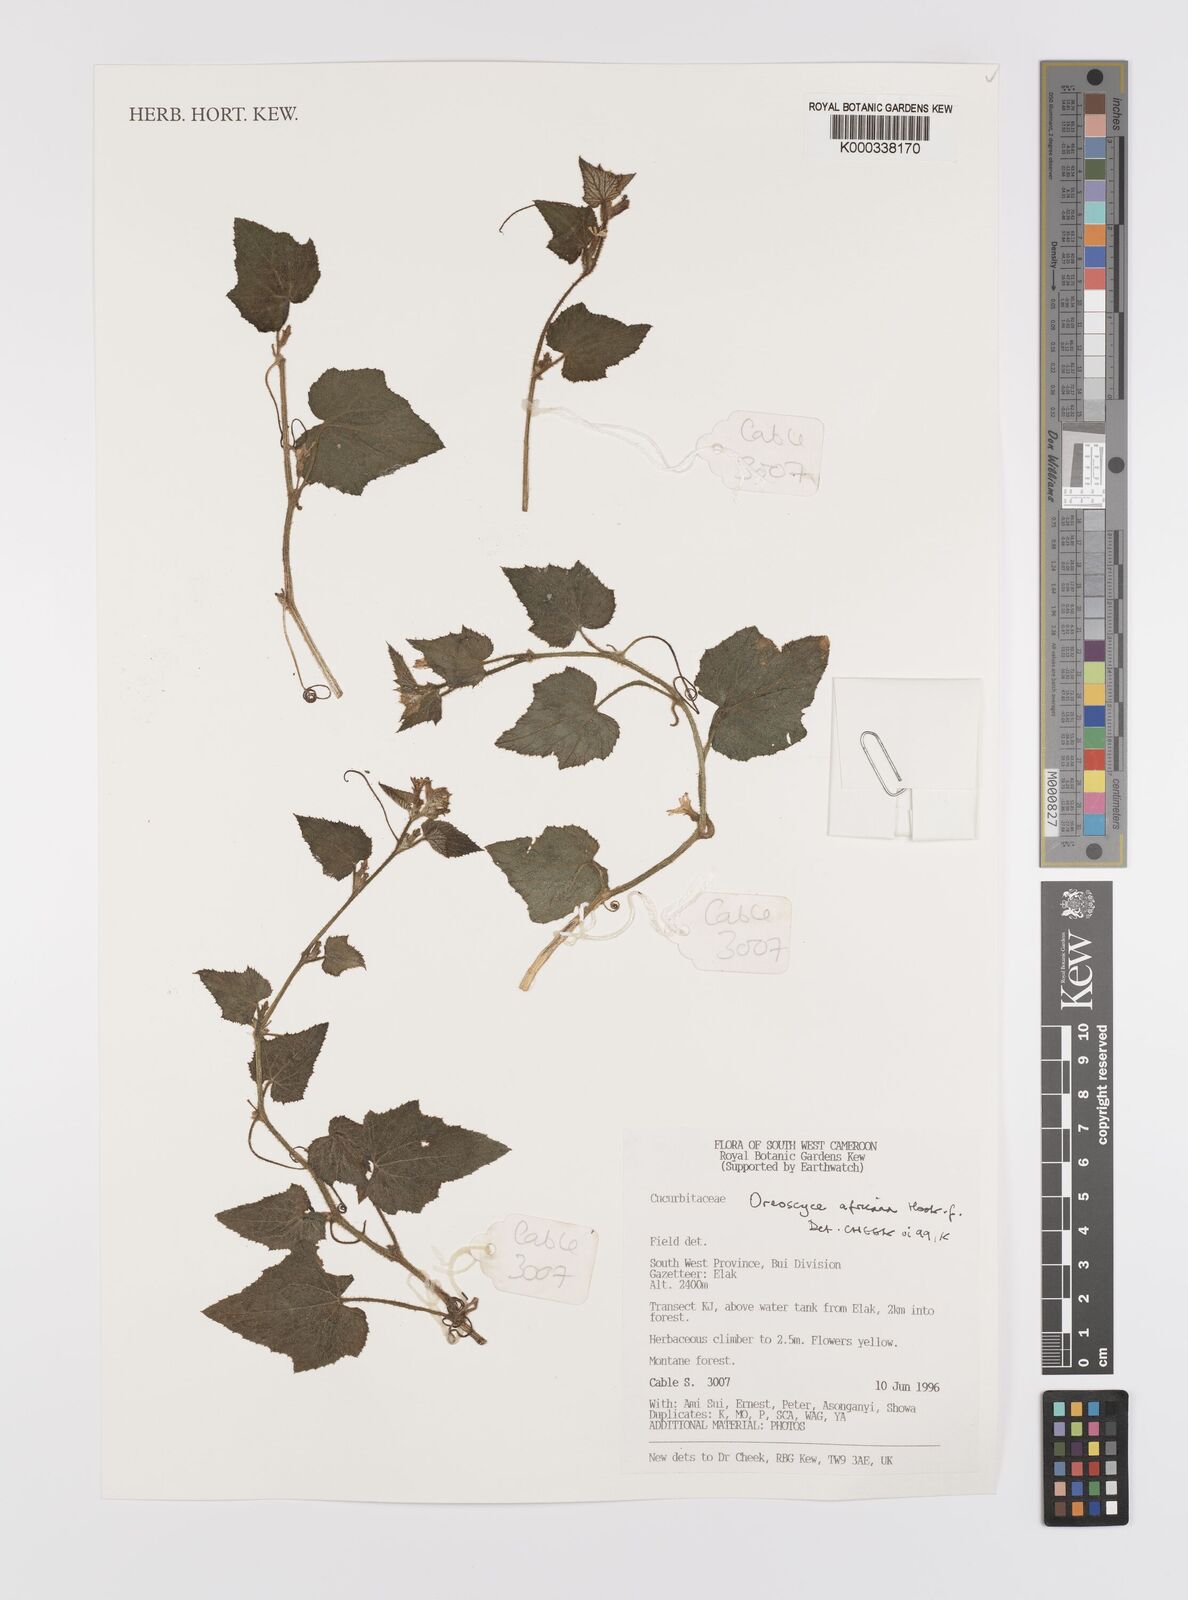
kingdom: Plantae
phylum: Tracheophyta
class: Magnoliopsida
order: Cucurbitales
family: Cucurbitaceae
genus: Cucumis
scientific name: Cucumis oreosyce
